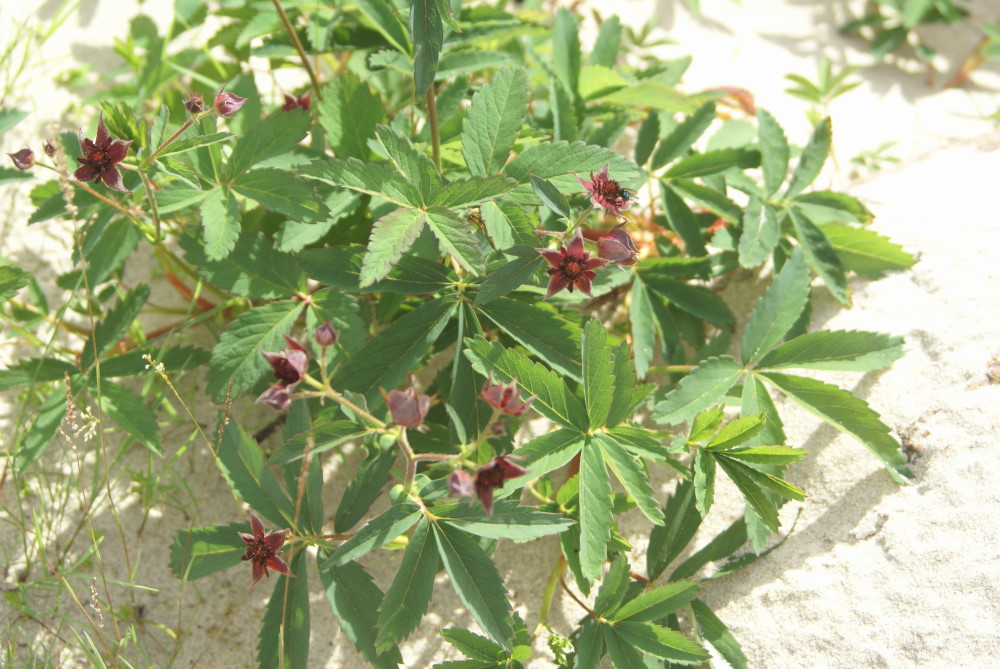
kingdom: Plantae
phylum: Tracheophyta
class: Magnoliopsida
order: Rosales
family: Rosaceae
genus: Comarum
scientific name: Comarum palustre
